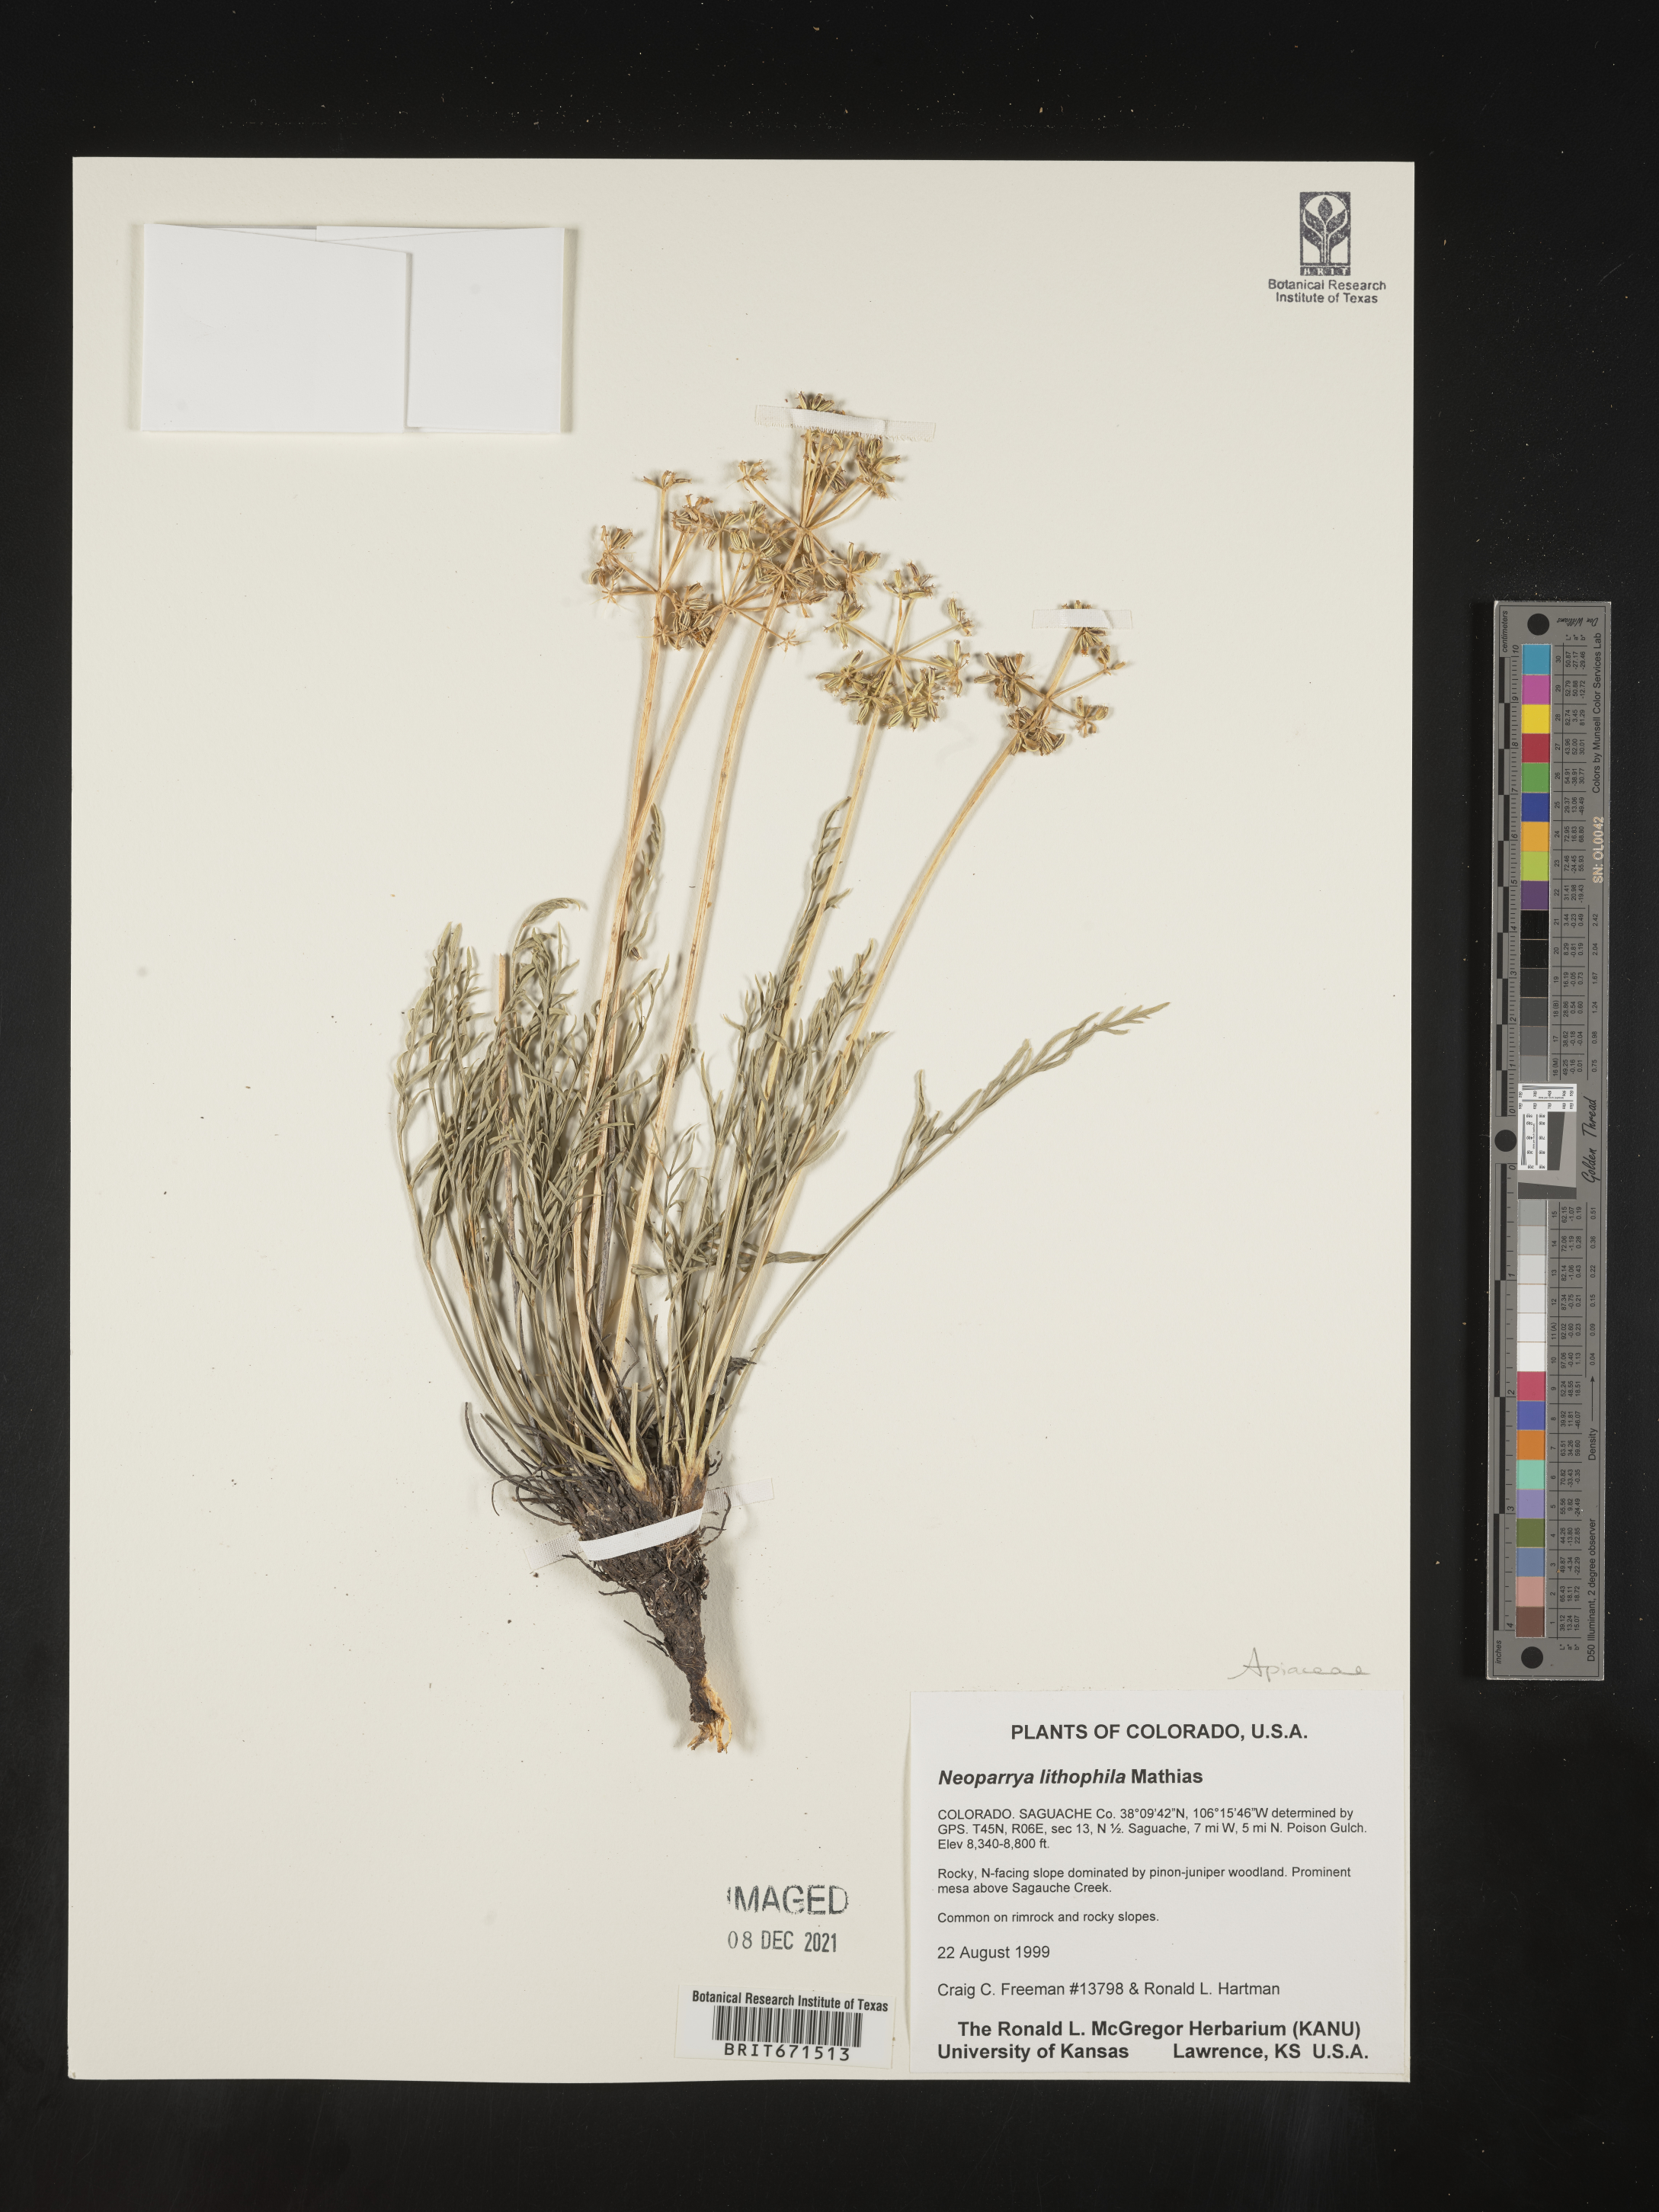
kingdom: Plantae
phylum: Tracheophyta
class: Magnoliopsida
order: Apiales
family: Apiaceae
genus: Neoparrya
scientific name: Neoparrya lithophila
